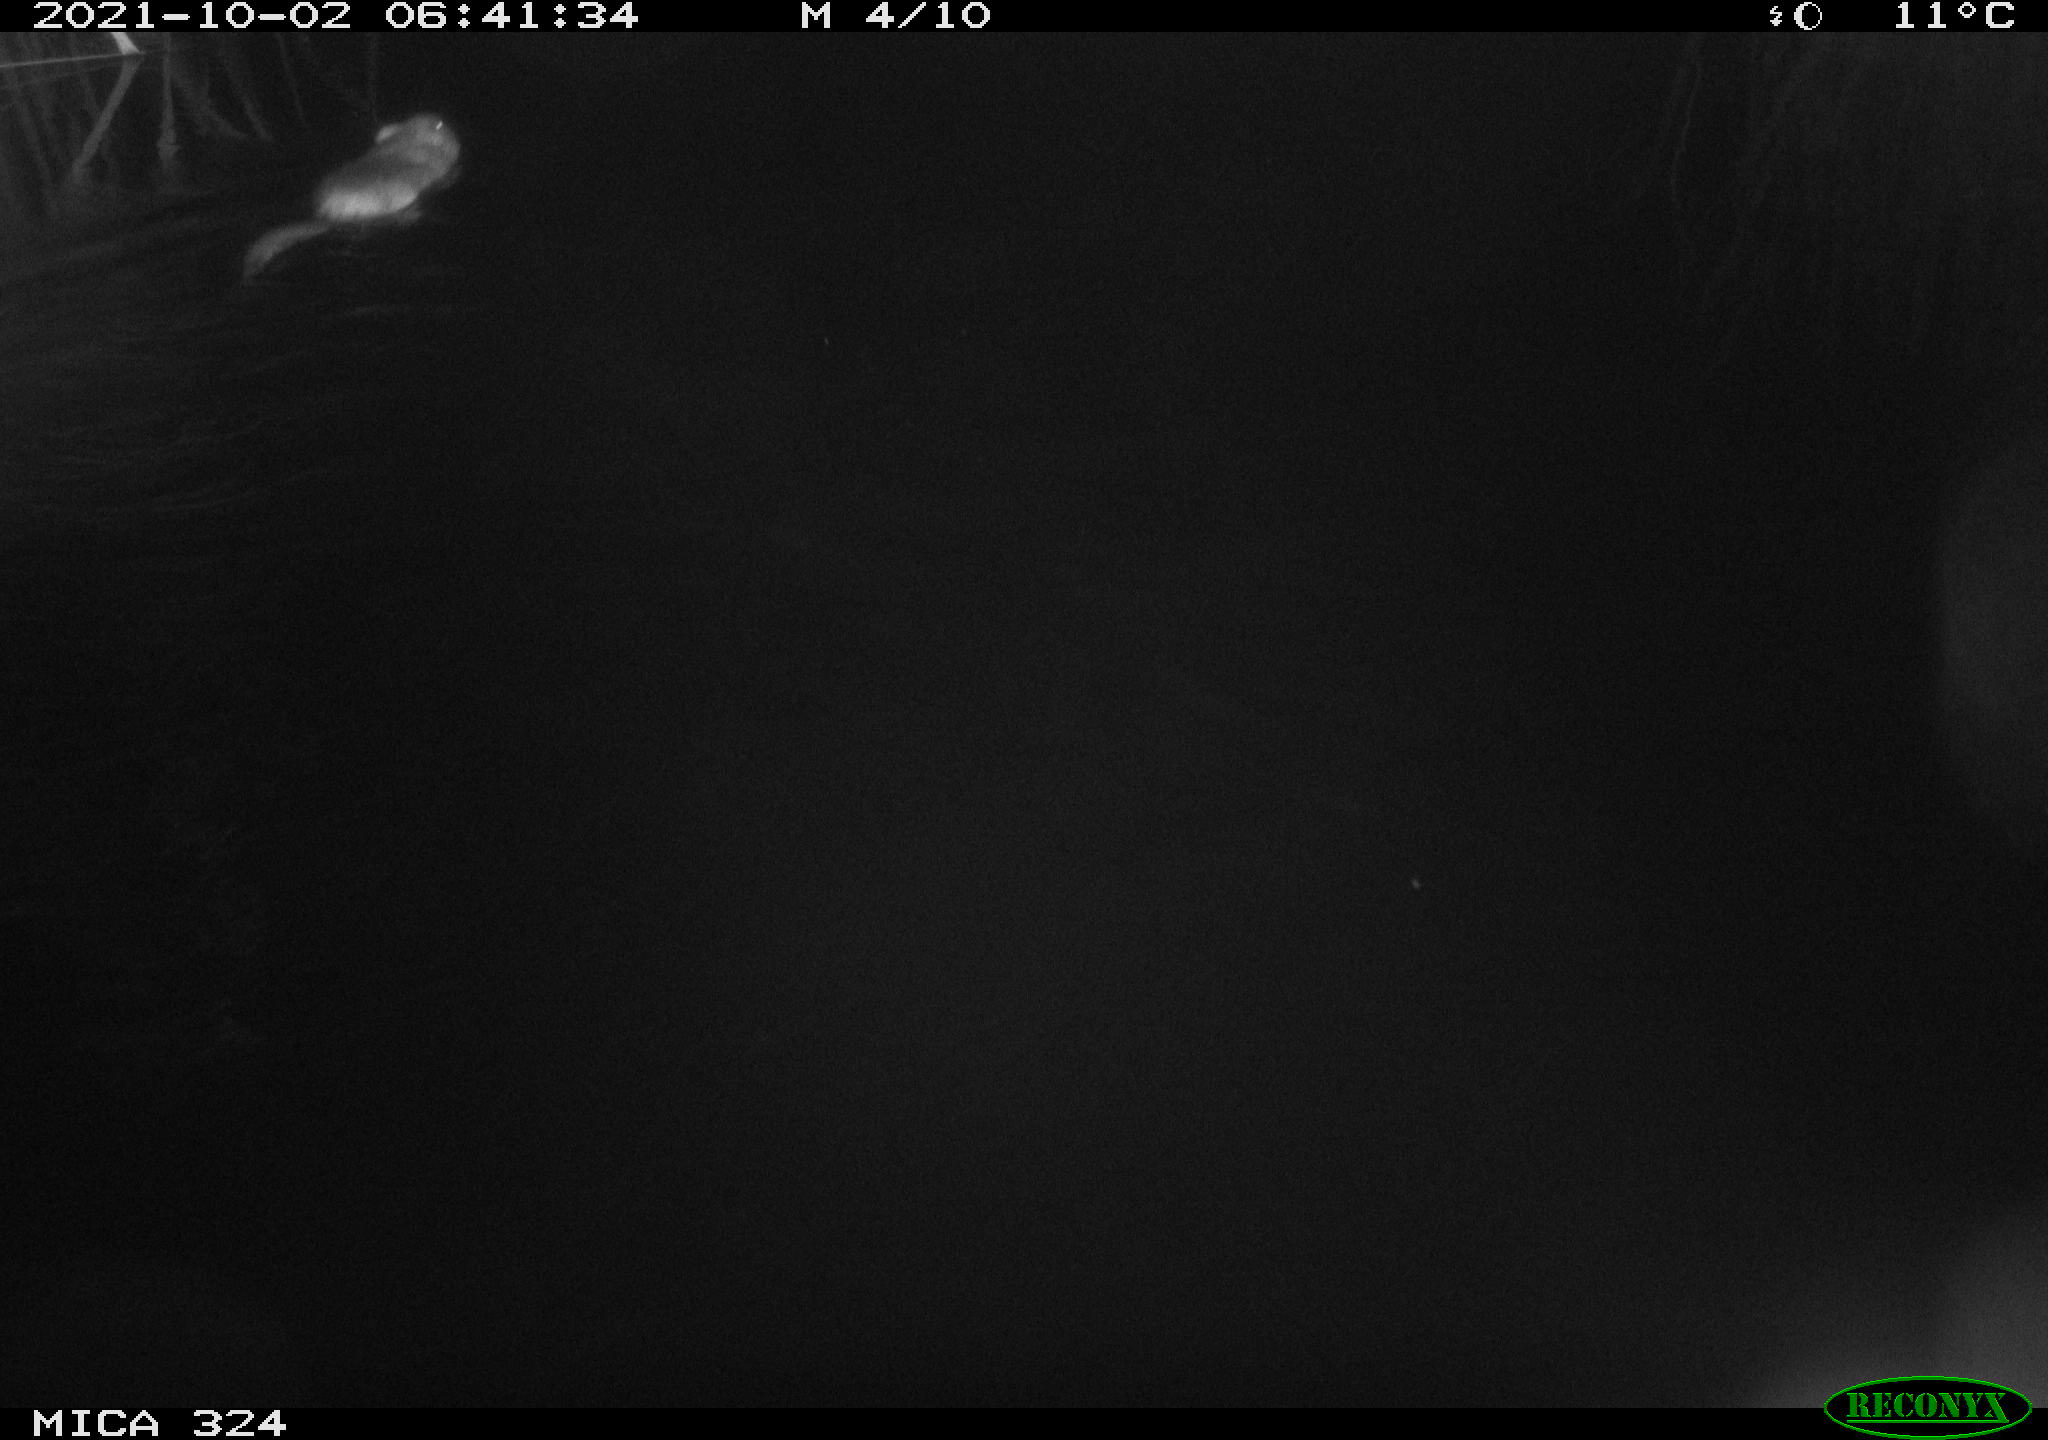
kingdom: Animalia
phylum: Chordata
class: Mammalia
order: Rodentia
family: Cricetidae
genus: Ondatra
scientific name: Ondatra zibethicus
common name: Muskrat
